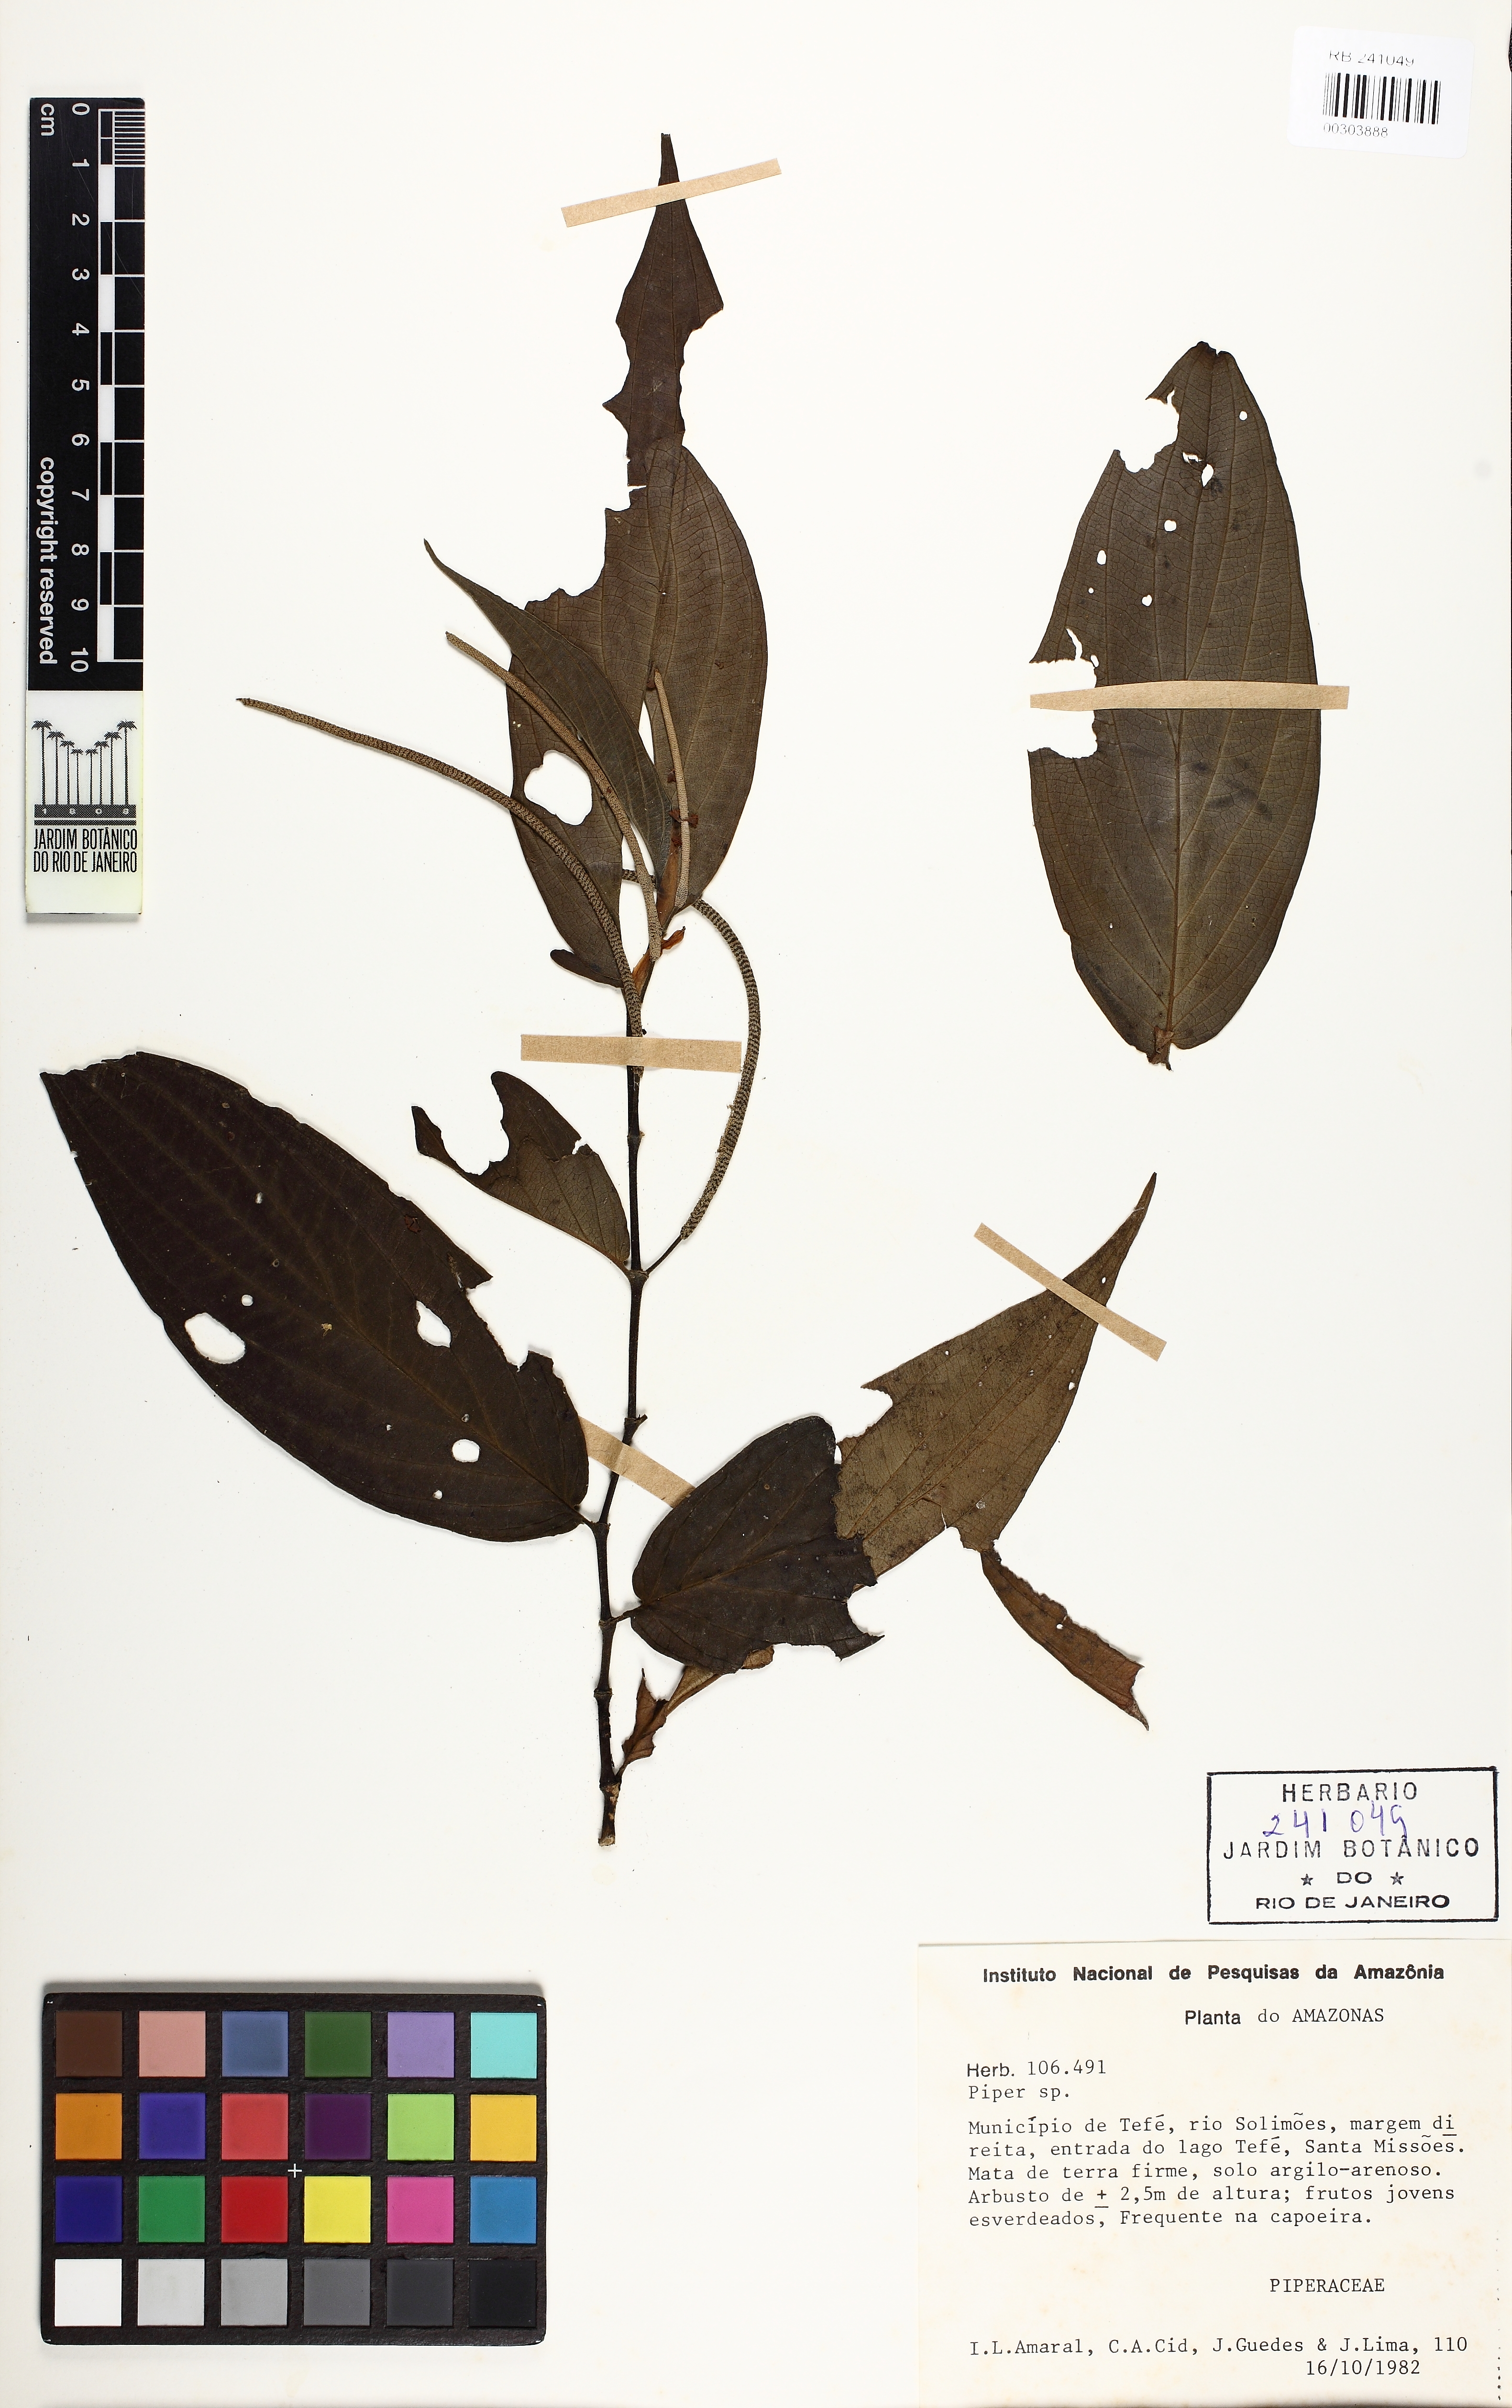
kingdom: Plantae
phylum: Tracheophyta
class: Magnoliopsida
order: Piperales
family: Piperaceae
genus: Peperomia
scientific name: Peperomia
